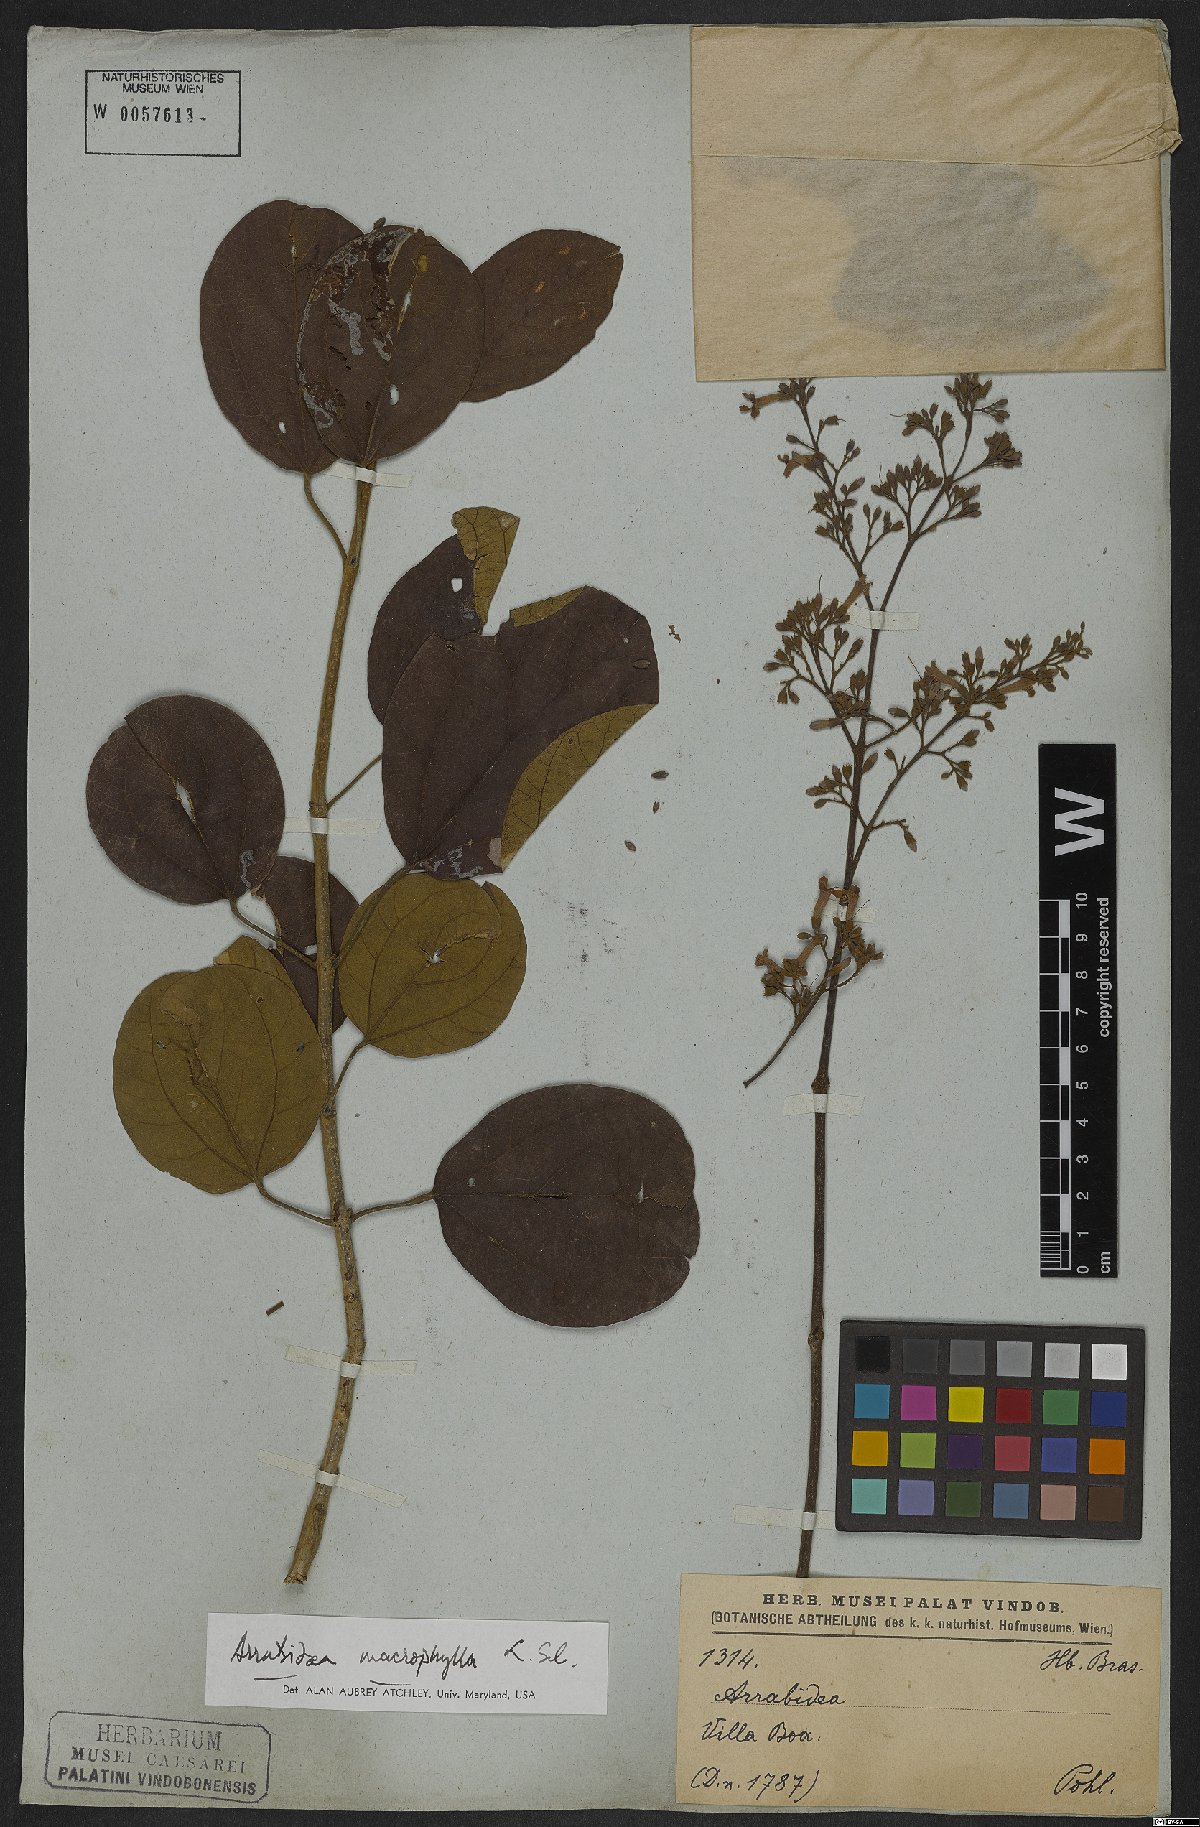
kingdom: Plantae
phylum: Tracheophyta
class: Magnoliopsida
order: Lamiales
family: Bignoniaceae
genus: Xylophragma
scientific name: Xylophragma platyphyllum
